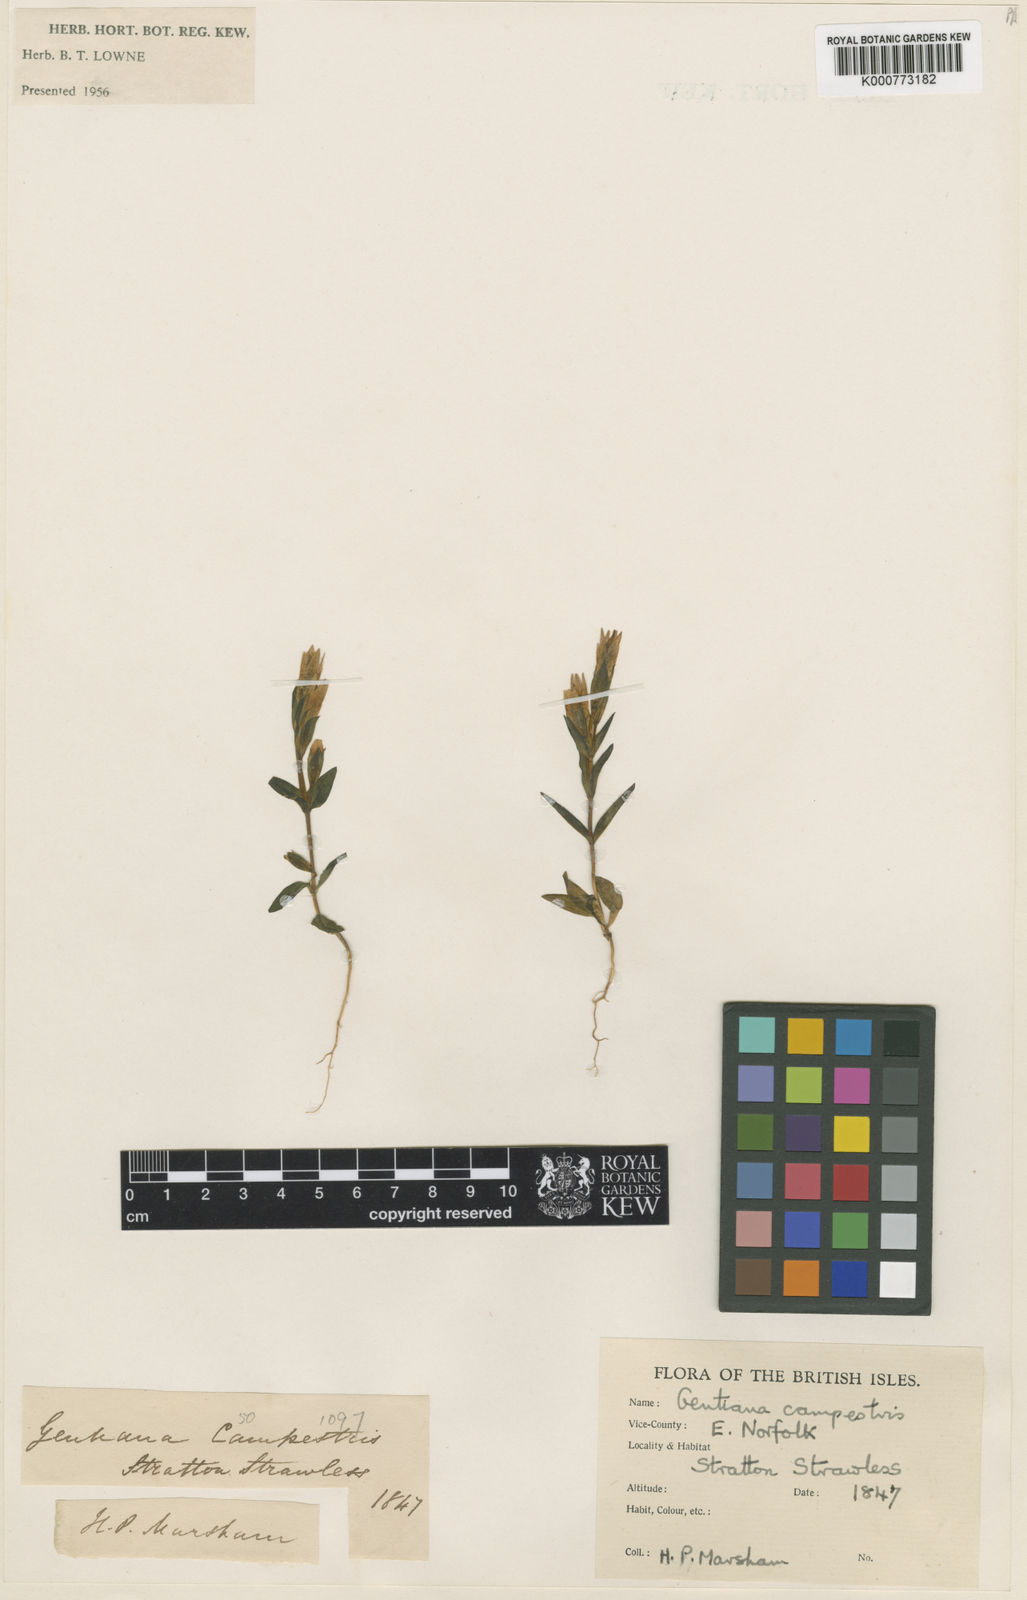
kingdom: Plantae
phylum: Tracheophyta
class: Magnoliopsida
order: Gentianales
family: Gentianaceae
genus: Gentianella
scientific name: Gentianella
